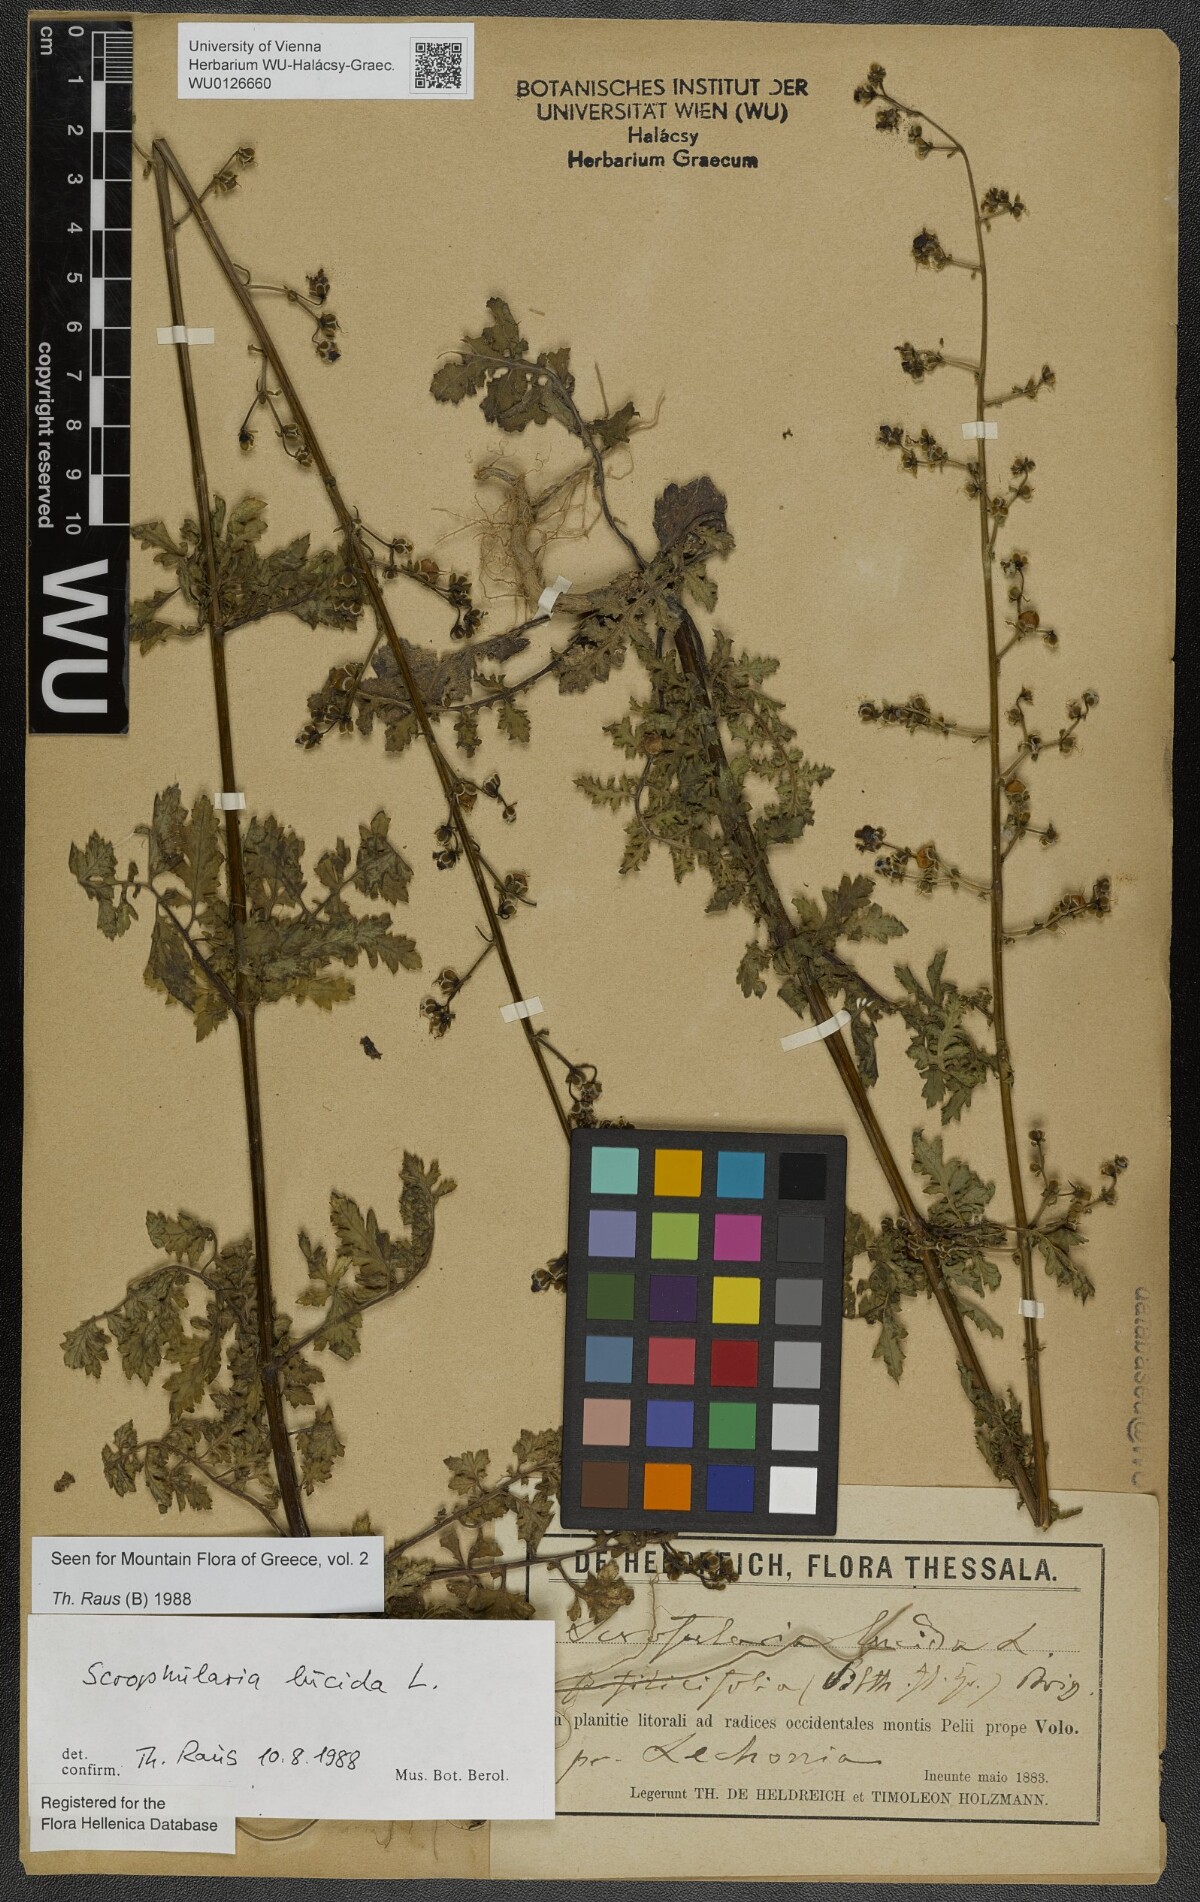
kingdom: Plantae
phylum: Tracheophyta
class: Magnoliopsida
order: Lamiales
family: Scrophulariaceae
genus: Scrophularia
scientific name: Scrophularia lucida
